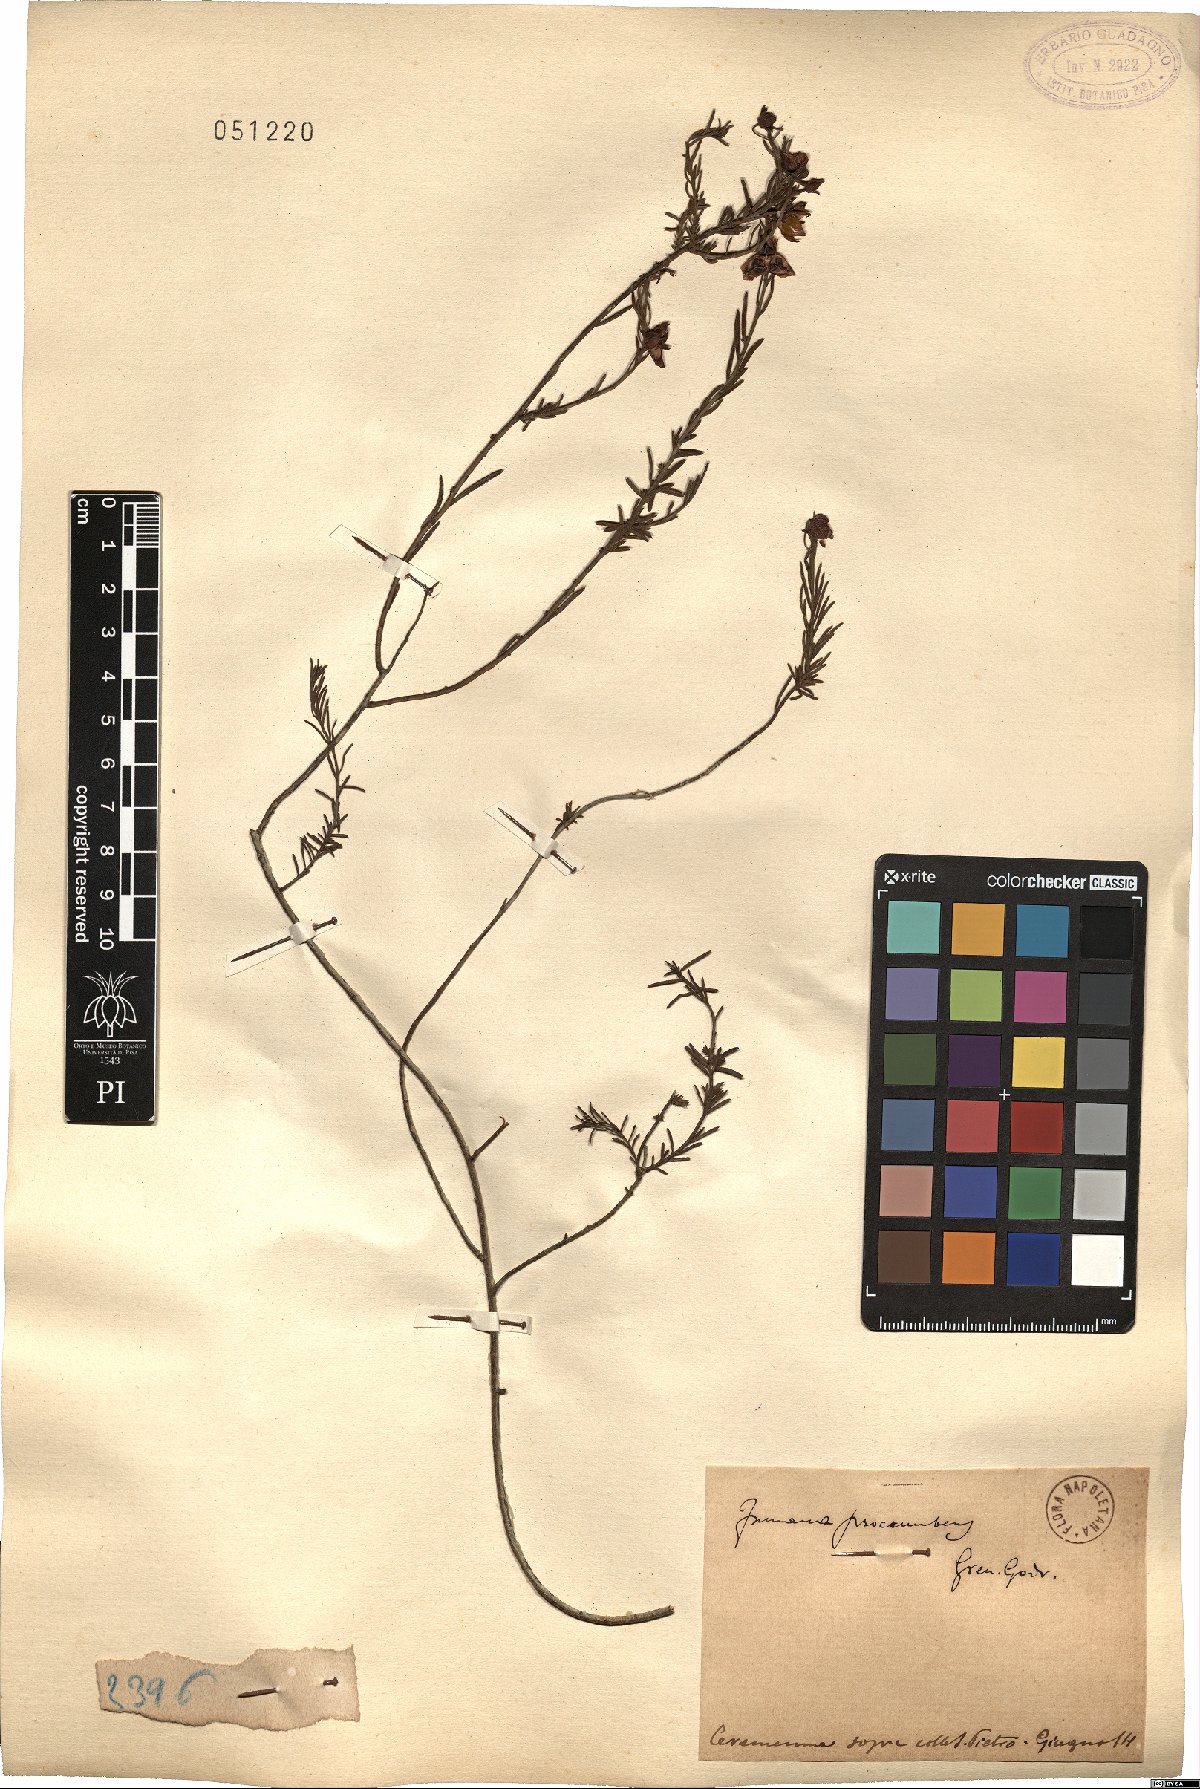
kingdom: Plantae
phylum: Tracheophyta
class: Magnoliopsida
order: Malvales
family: Cistaceae
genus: Fumana
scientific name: Fumana procumbens
